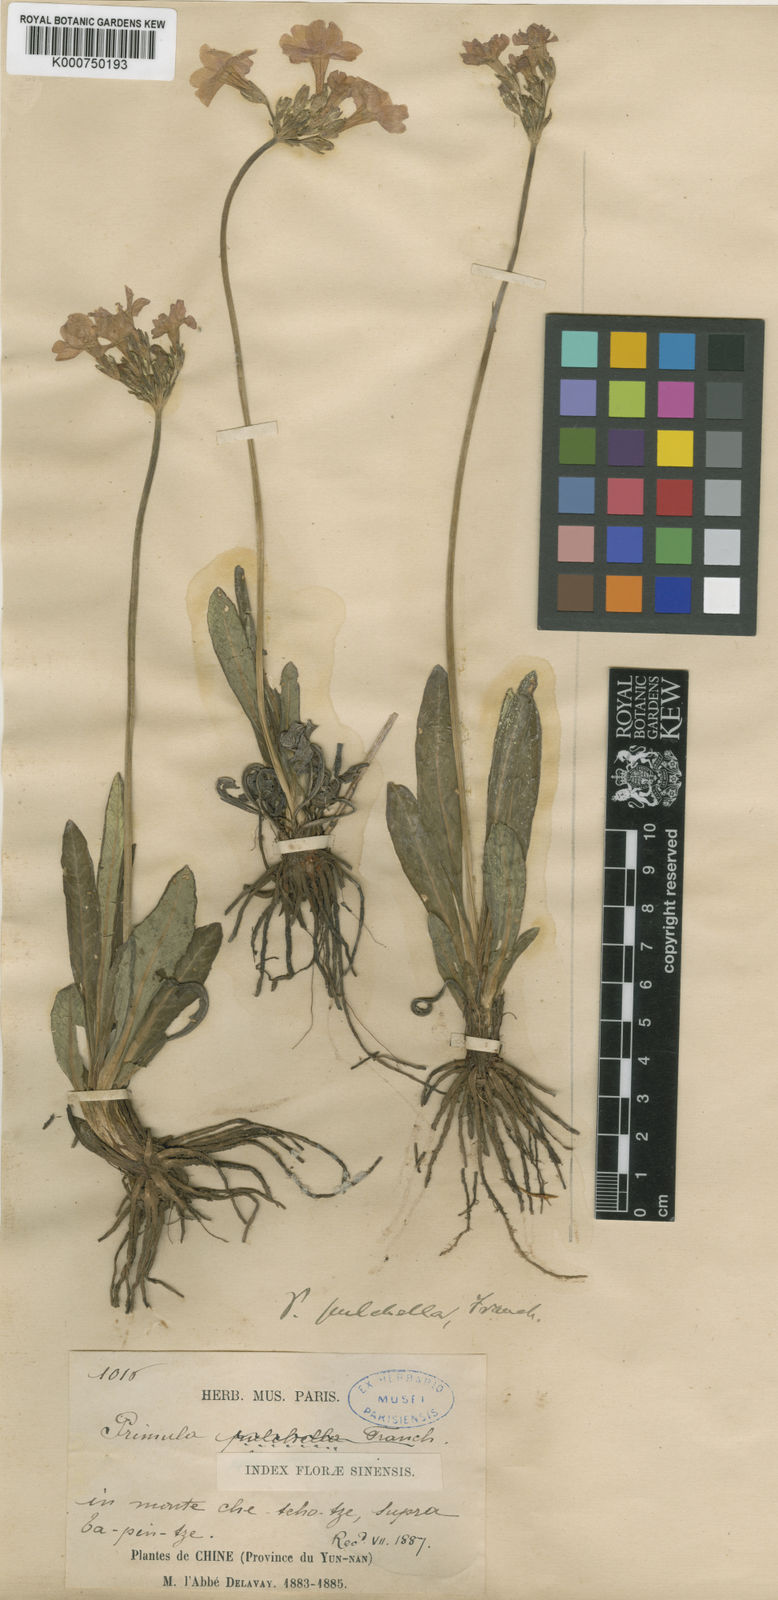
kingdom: Plantae
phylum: Tracheophyta
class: Magnoliopsida
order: Ericales
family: Primulaceae
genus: Primula
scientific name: Primula pulchella
